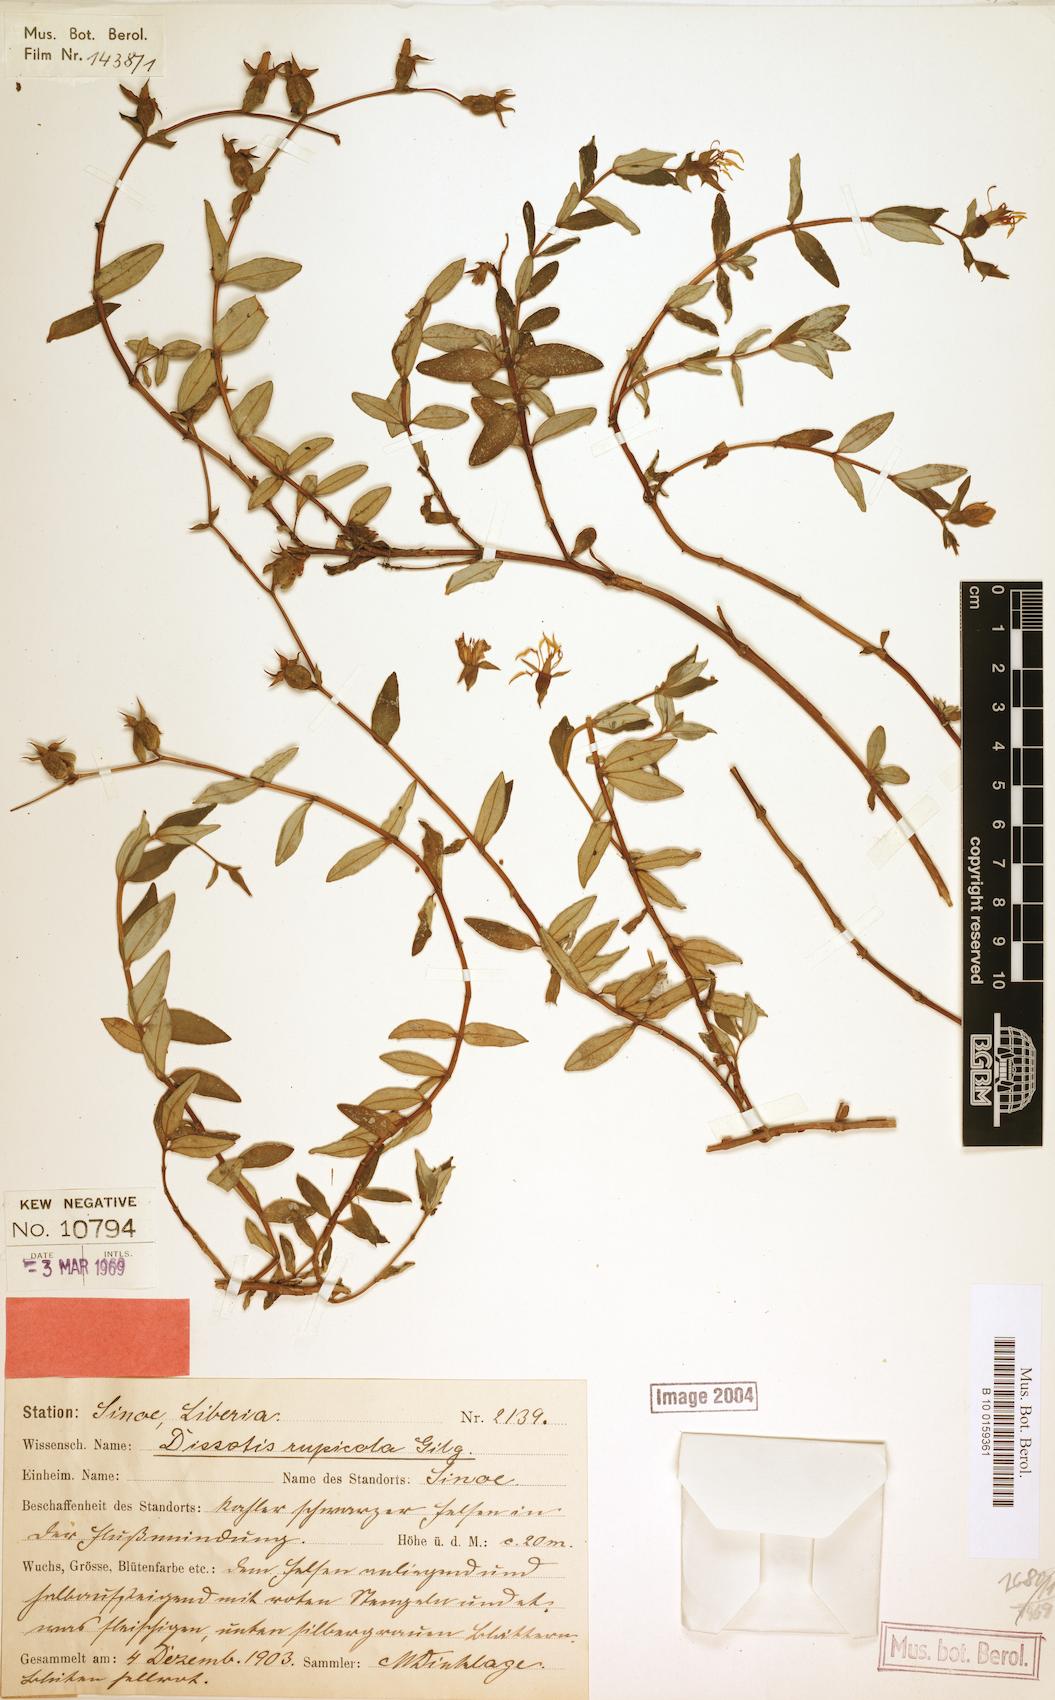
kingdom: Plantae
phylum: Tracheophyta
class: Magnoliopsida
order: Myrtales
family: Melastomataceae
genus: Guyonia
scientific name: Guyonia rupicola
